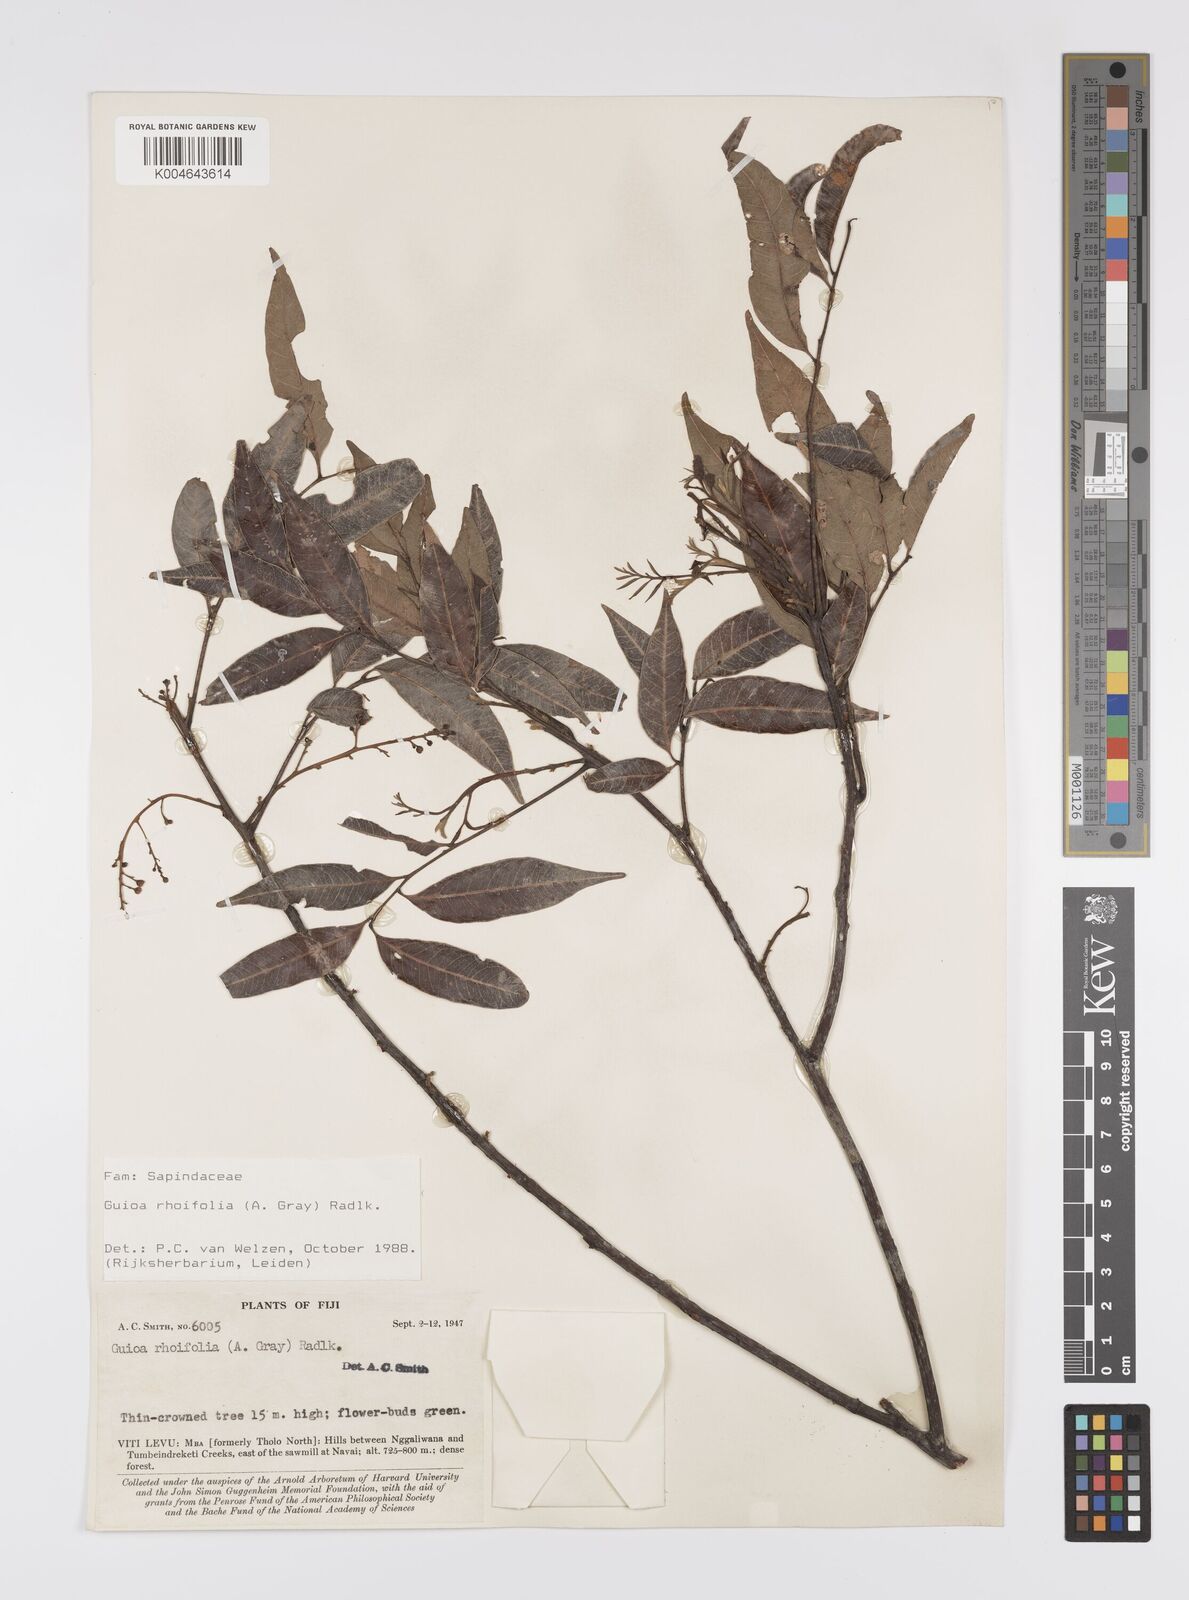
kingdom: Plantae
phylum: Tracheophyta
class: Magnoliopsida
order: Sapindales
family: Sapindaceae
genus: Guioa
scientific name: Guioa rhoifolia
